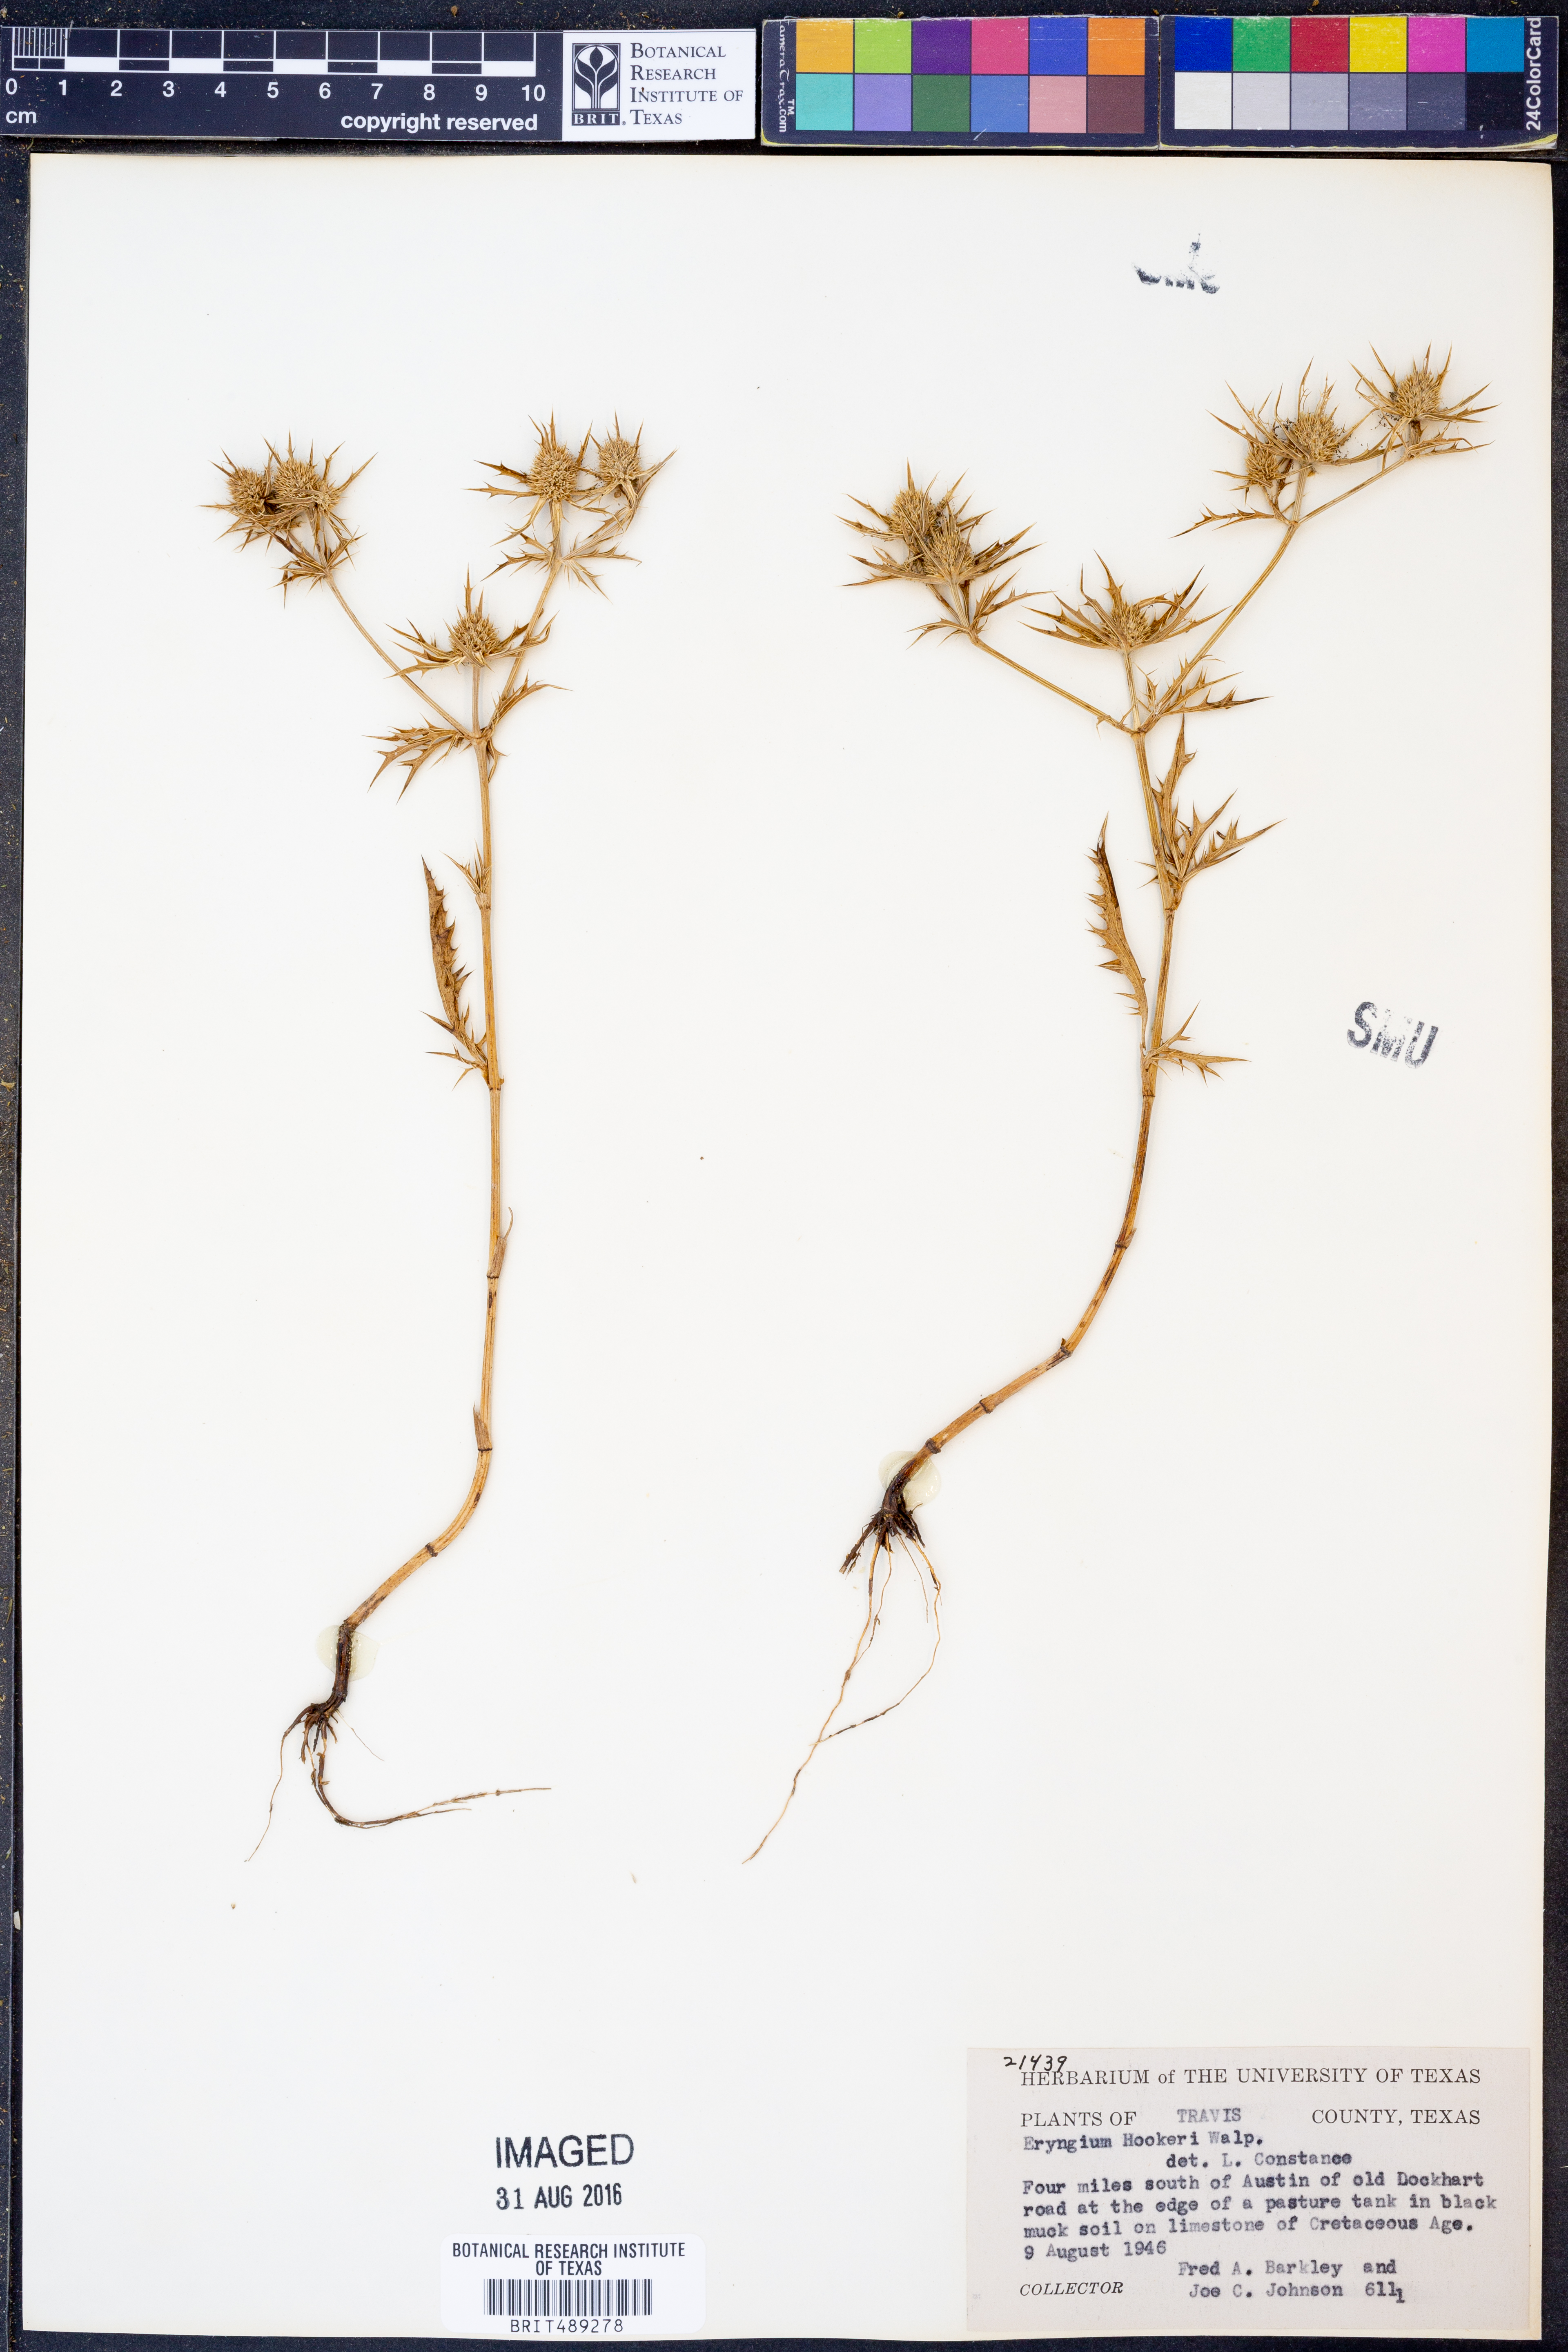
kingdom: Plantae
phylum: Tracheophyta
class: Magnoliopsida
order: Apiales
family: Apiaceae
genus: Eryngium
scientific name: Eryngium hookeri
